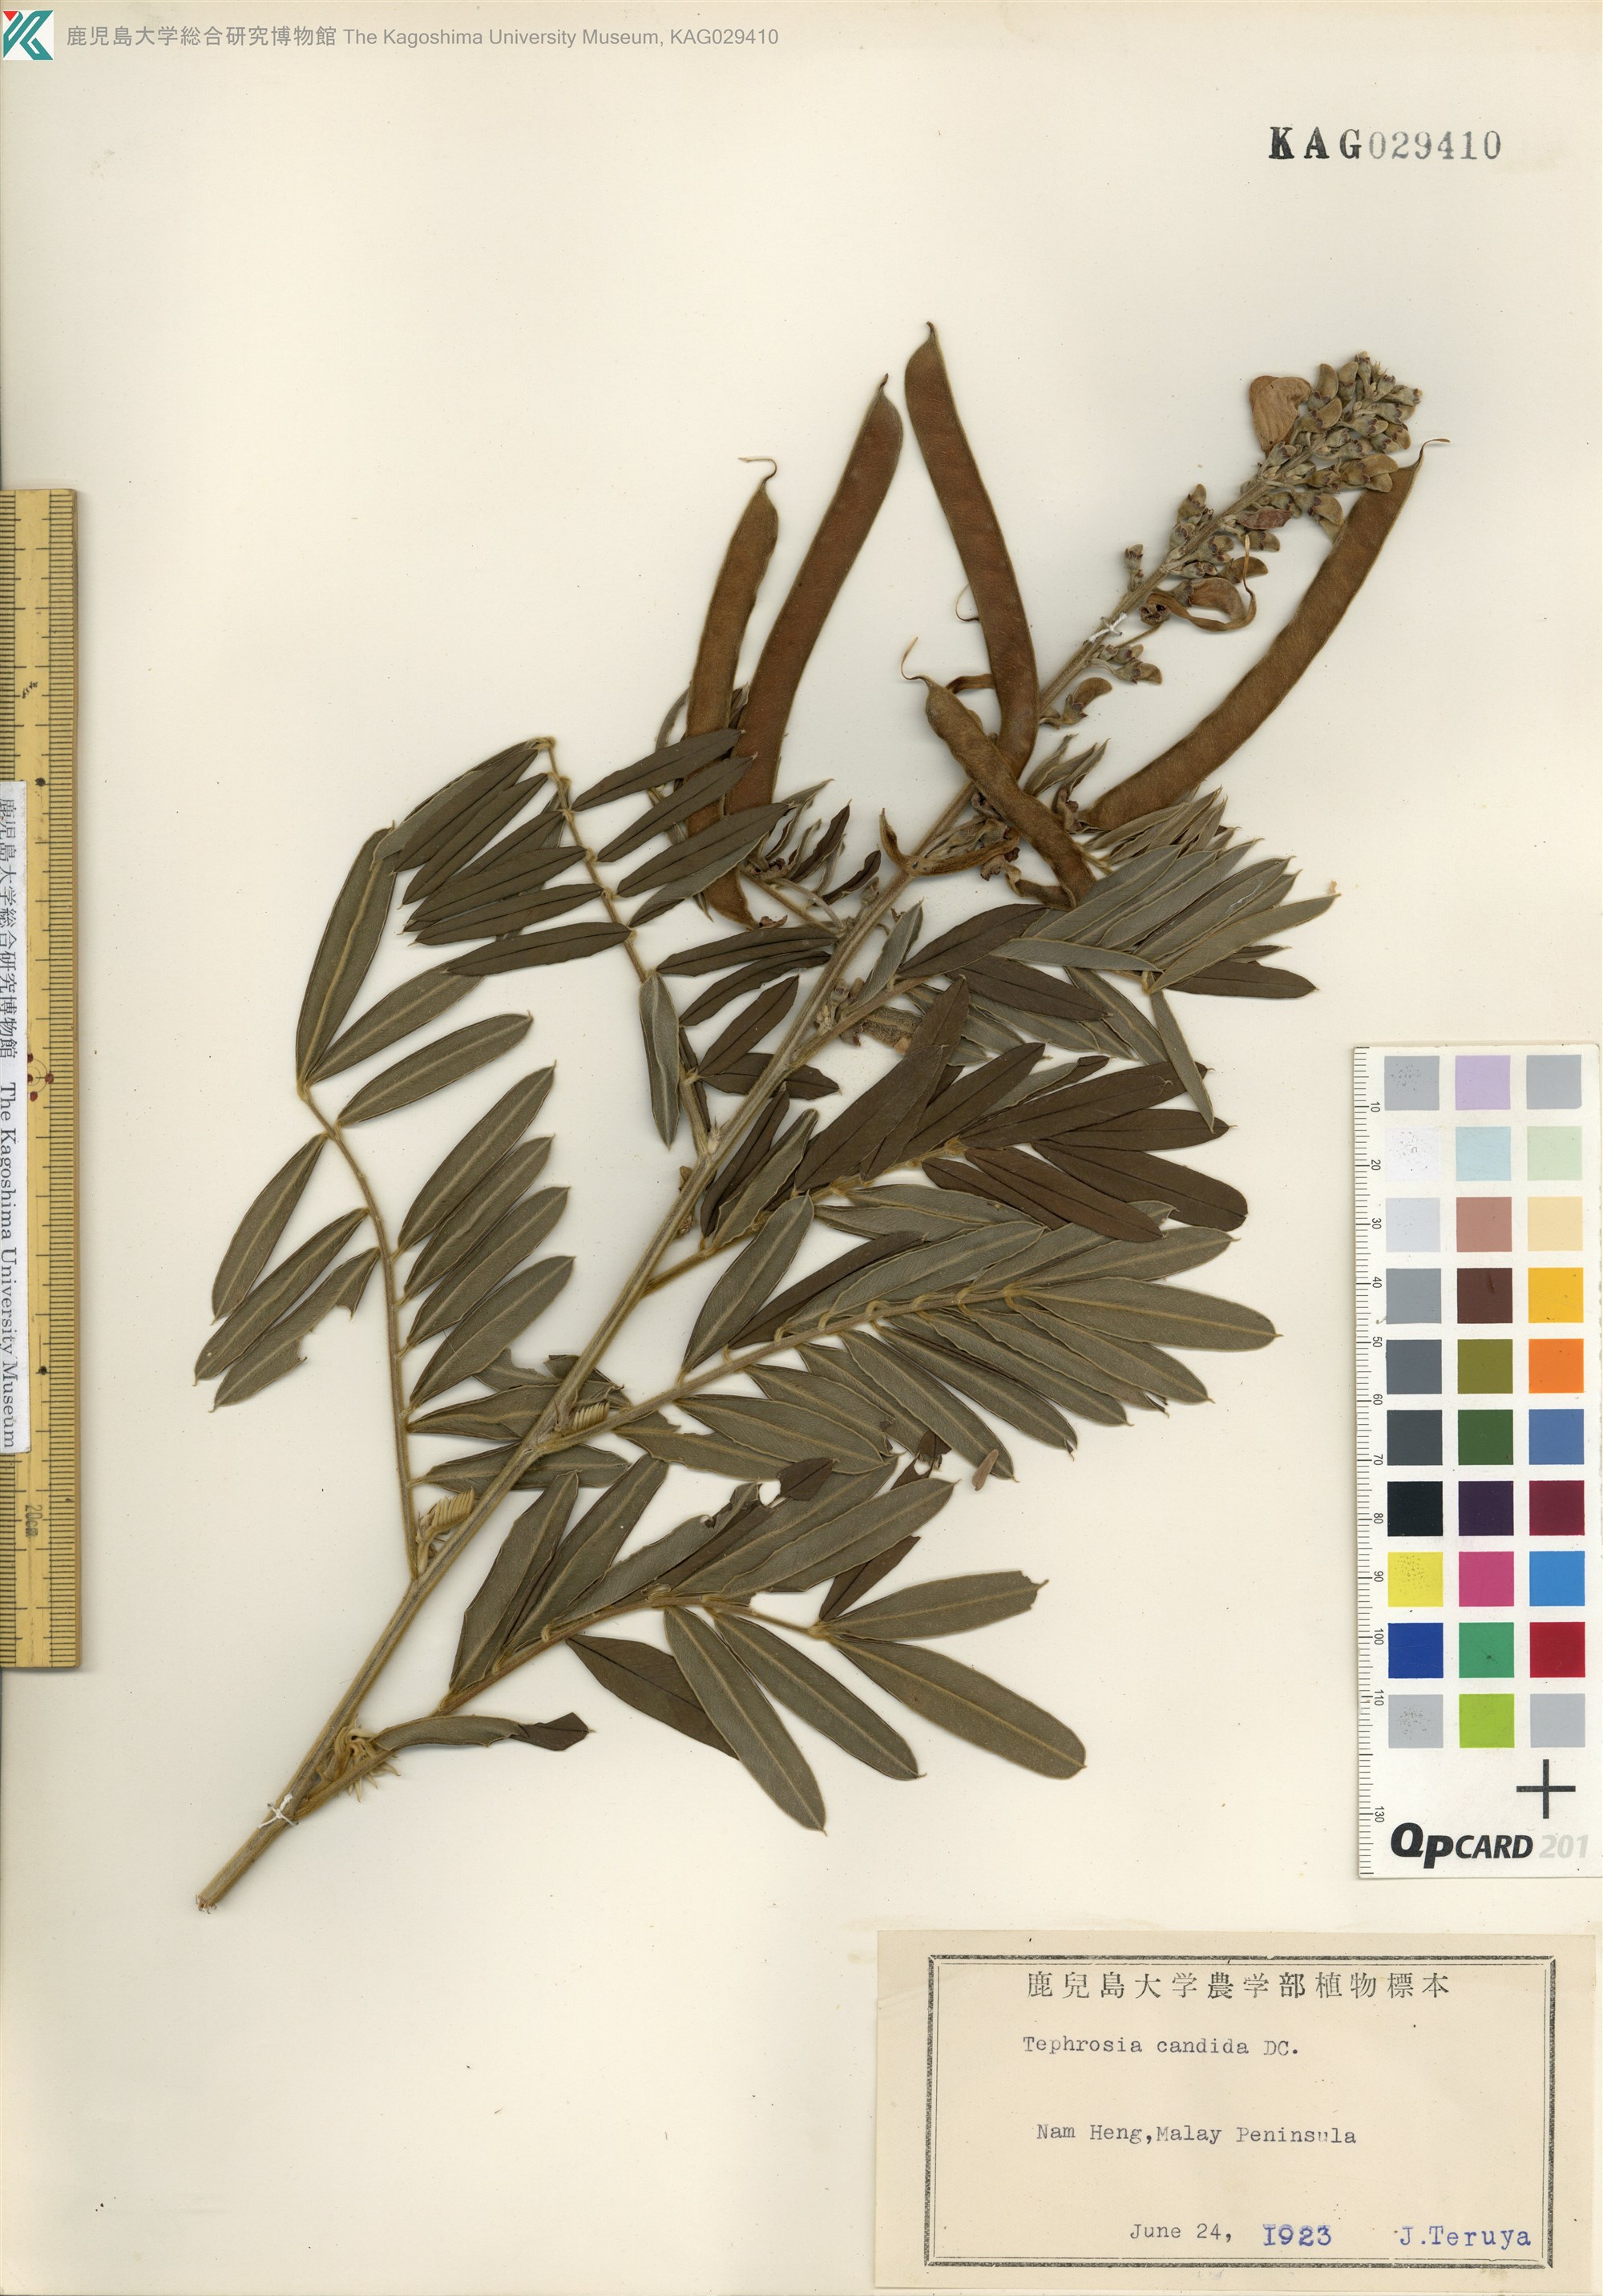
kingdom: Plantae
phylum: Tracheophyta
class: Magnoliopsida
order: Fabales
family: Fabaceae
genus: Tephrosia
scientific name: Tephrosia candida
